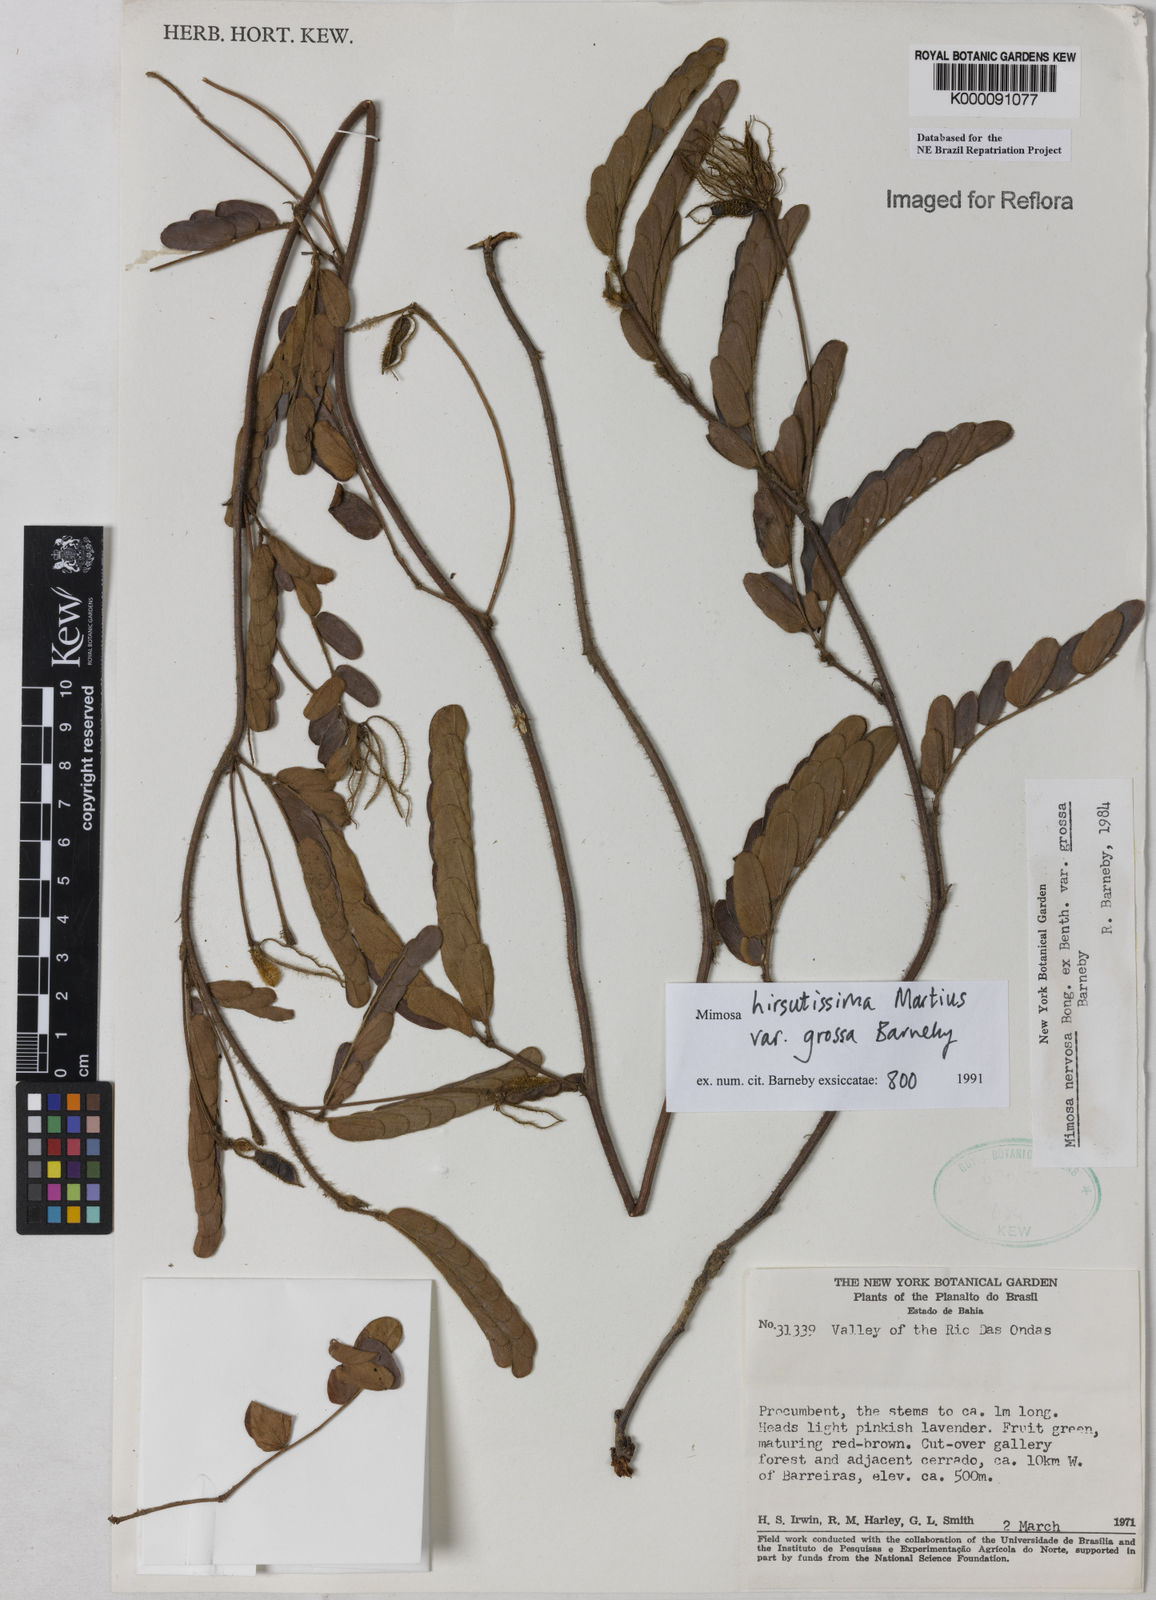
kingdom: Plantae
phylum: Tracheophyta
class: Magnoliopsida
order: Fabales
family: Fabaceae
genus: Mimosa
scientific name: Mimosa hirsutissima
